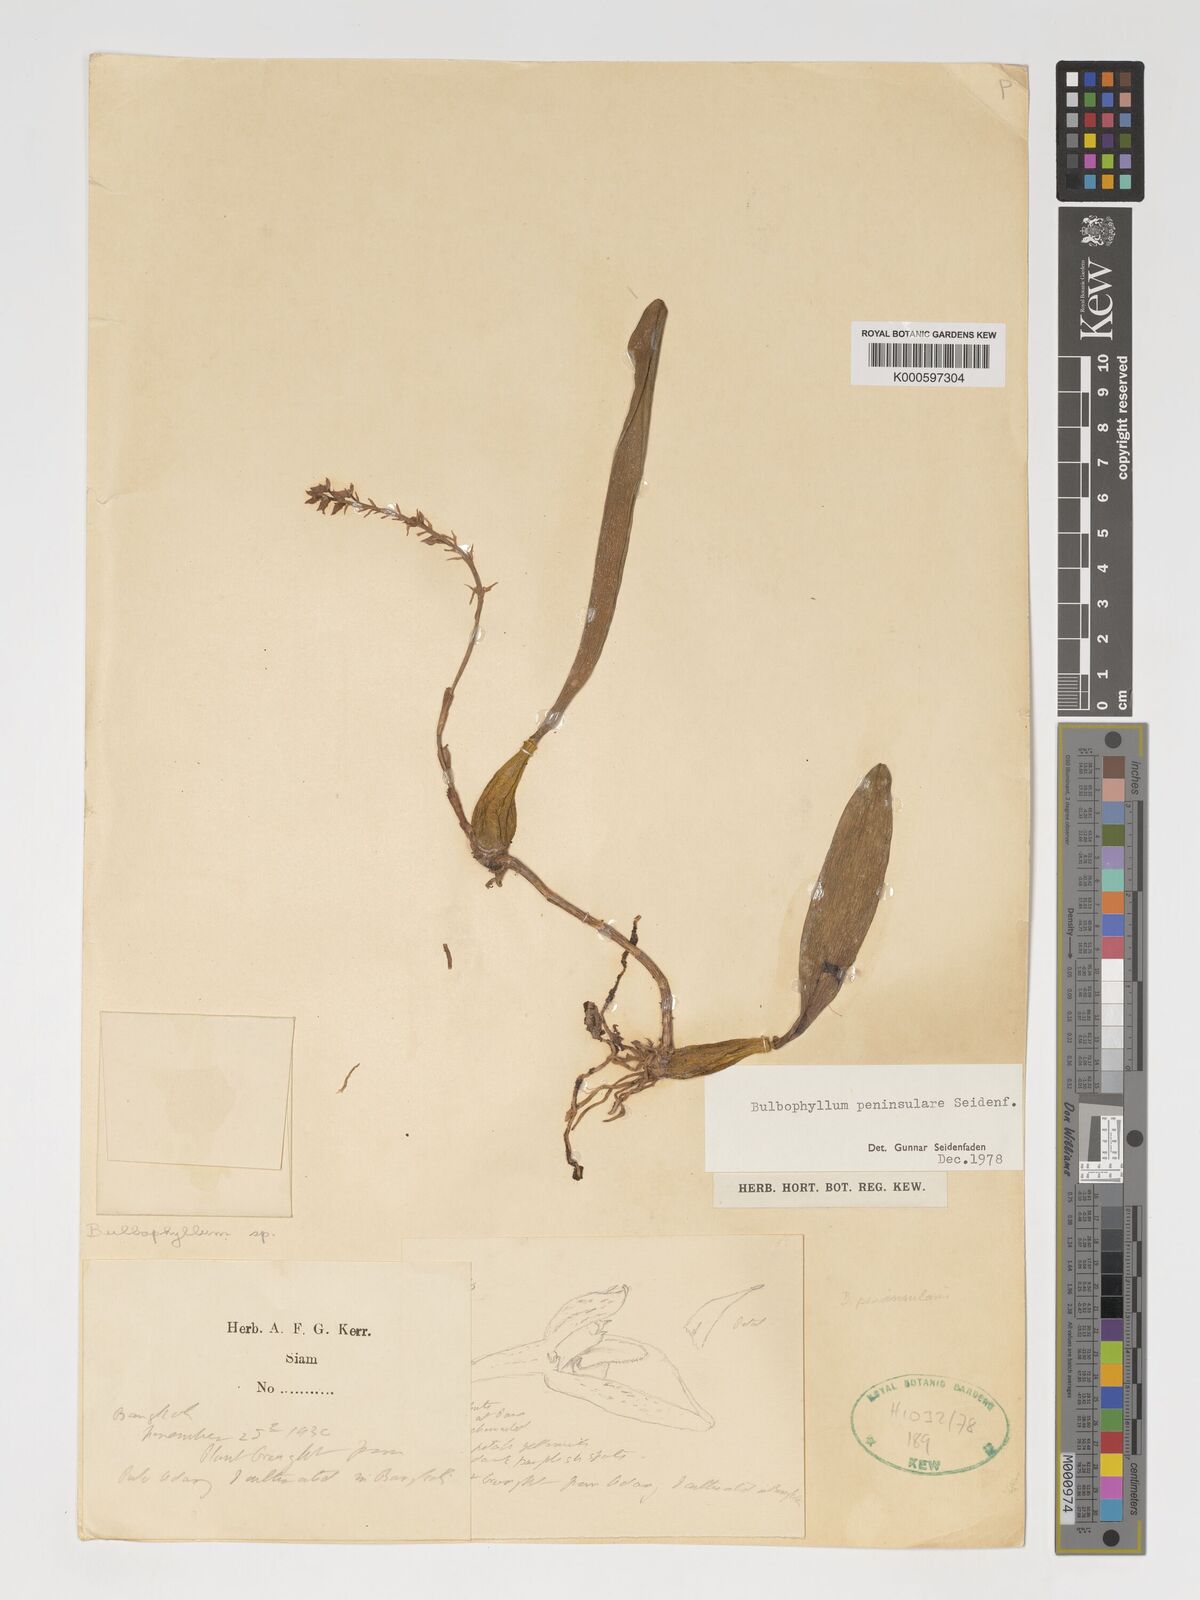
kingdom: Plantae
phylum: Tracheophyta
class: Liliopsida
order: Asparagales
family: Orchidaceae
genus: Bulbophyllum
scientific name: Bulbophyllum peninsulare
